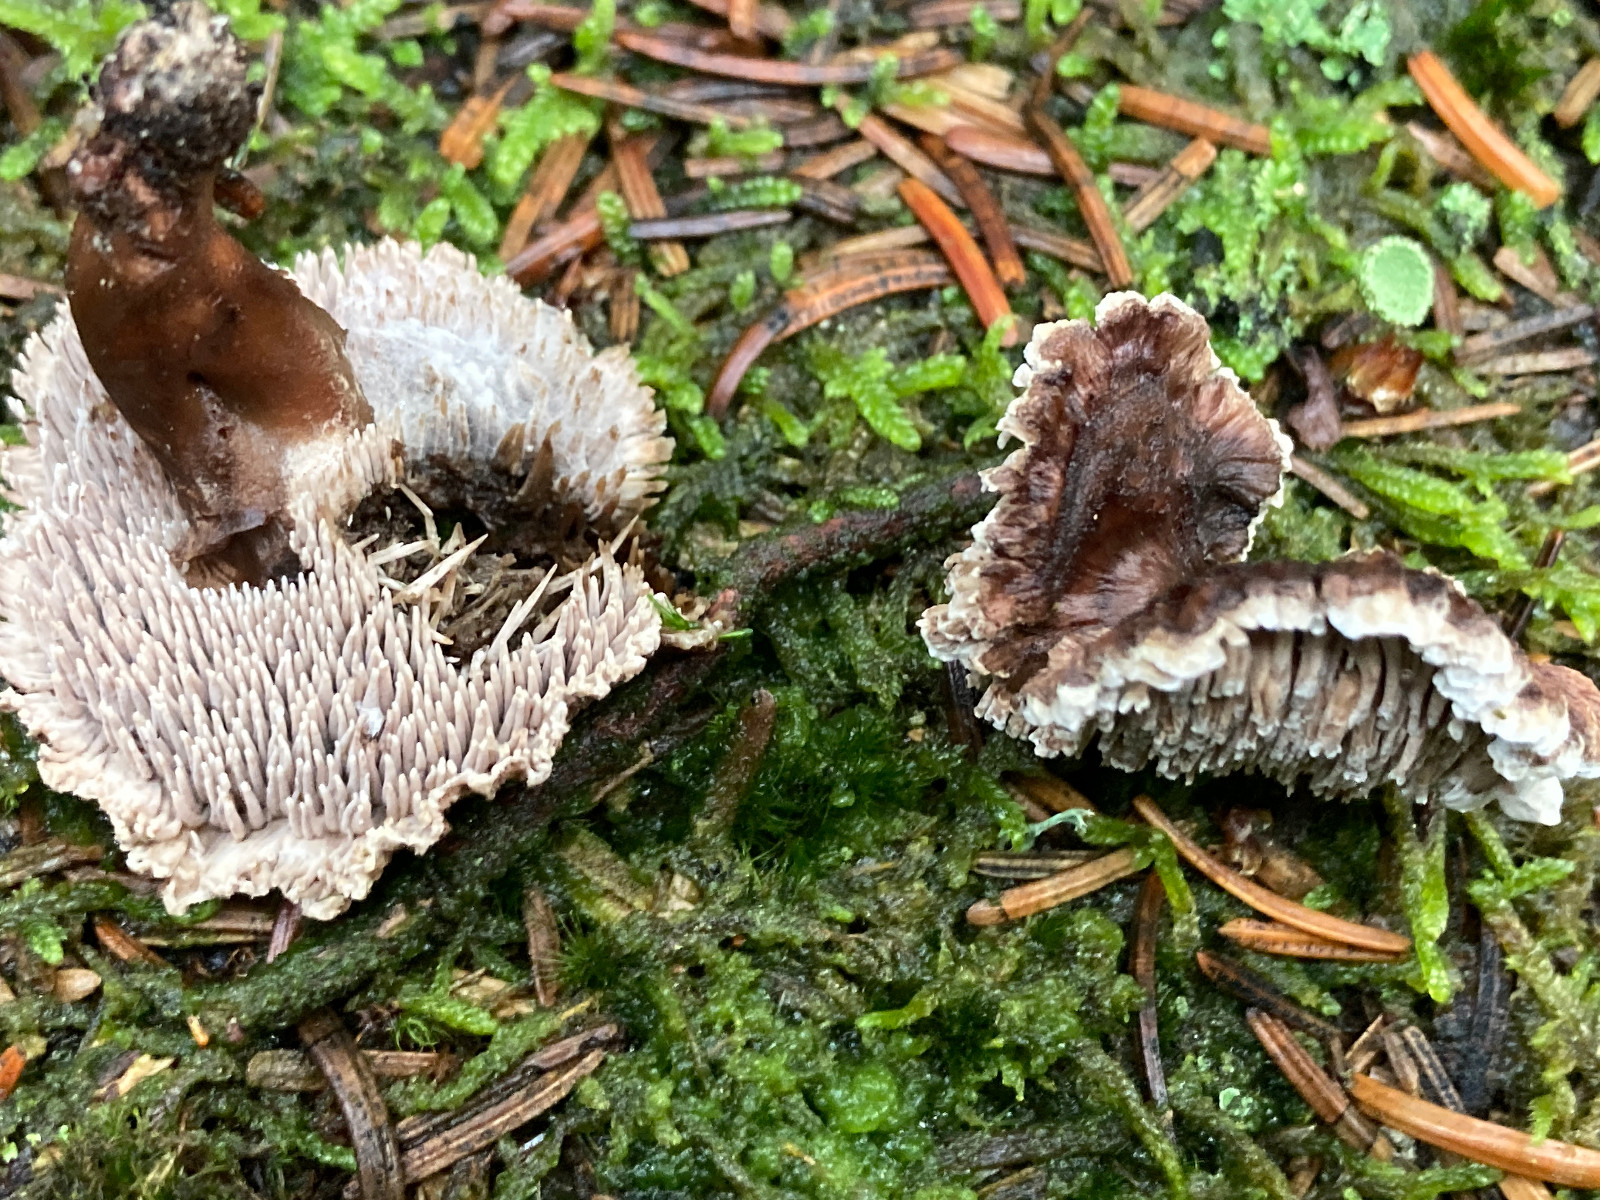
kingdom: Fungi
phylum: Basidiomycota
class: Agaricomycetes
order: Thelephorales
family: Thelephoraceae
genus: Phellodon
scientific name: Phellodon violascens
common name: violetbrun duftpigsvamp
